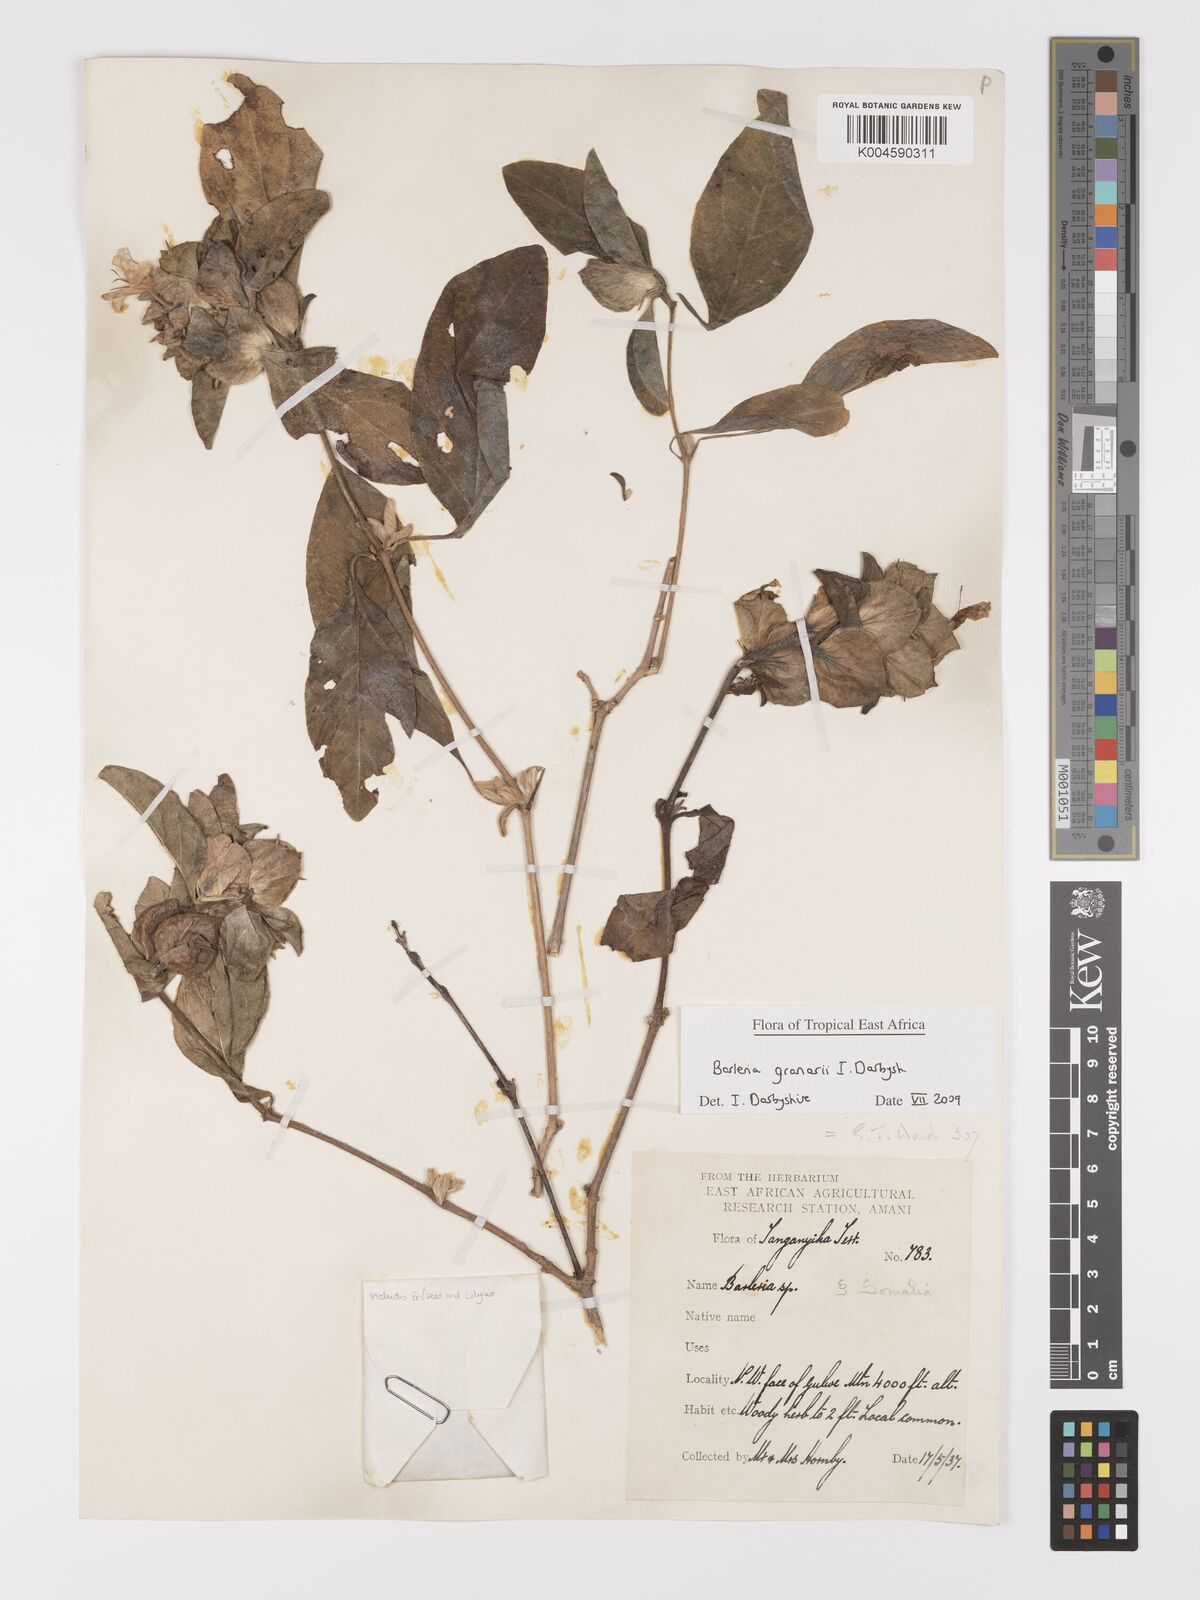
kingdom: Plantae
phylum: Tracheophyta
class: Magnoliopsida
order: Lamiales
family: Acanthaceae
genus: Barleria
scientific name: Barleria granarii
